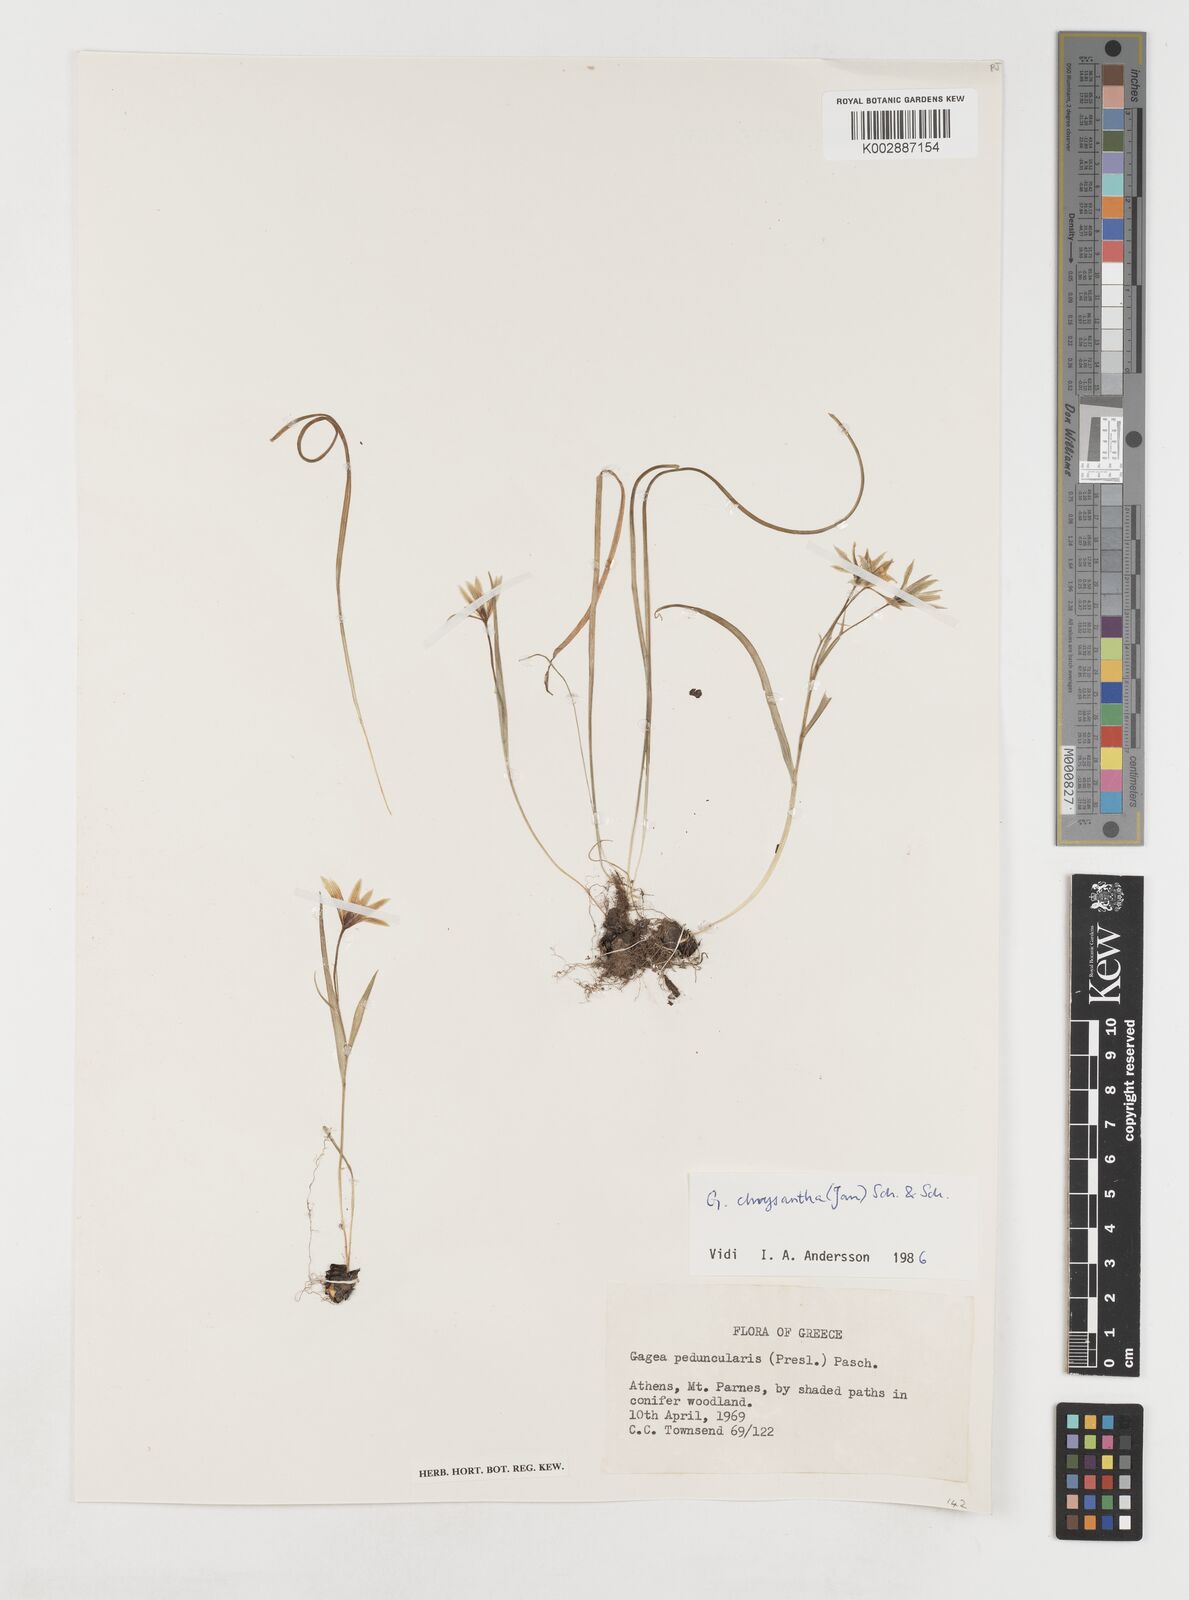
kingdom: Plantae
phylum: Tracheophyta
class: Liliopsida
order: Liliales
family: Liliaceae
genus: Gagea
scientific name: Gagea
